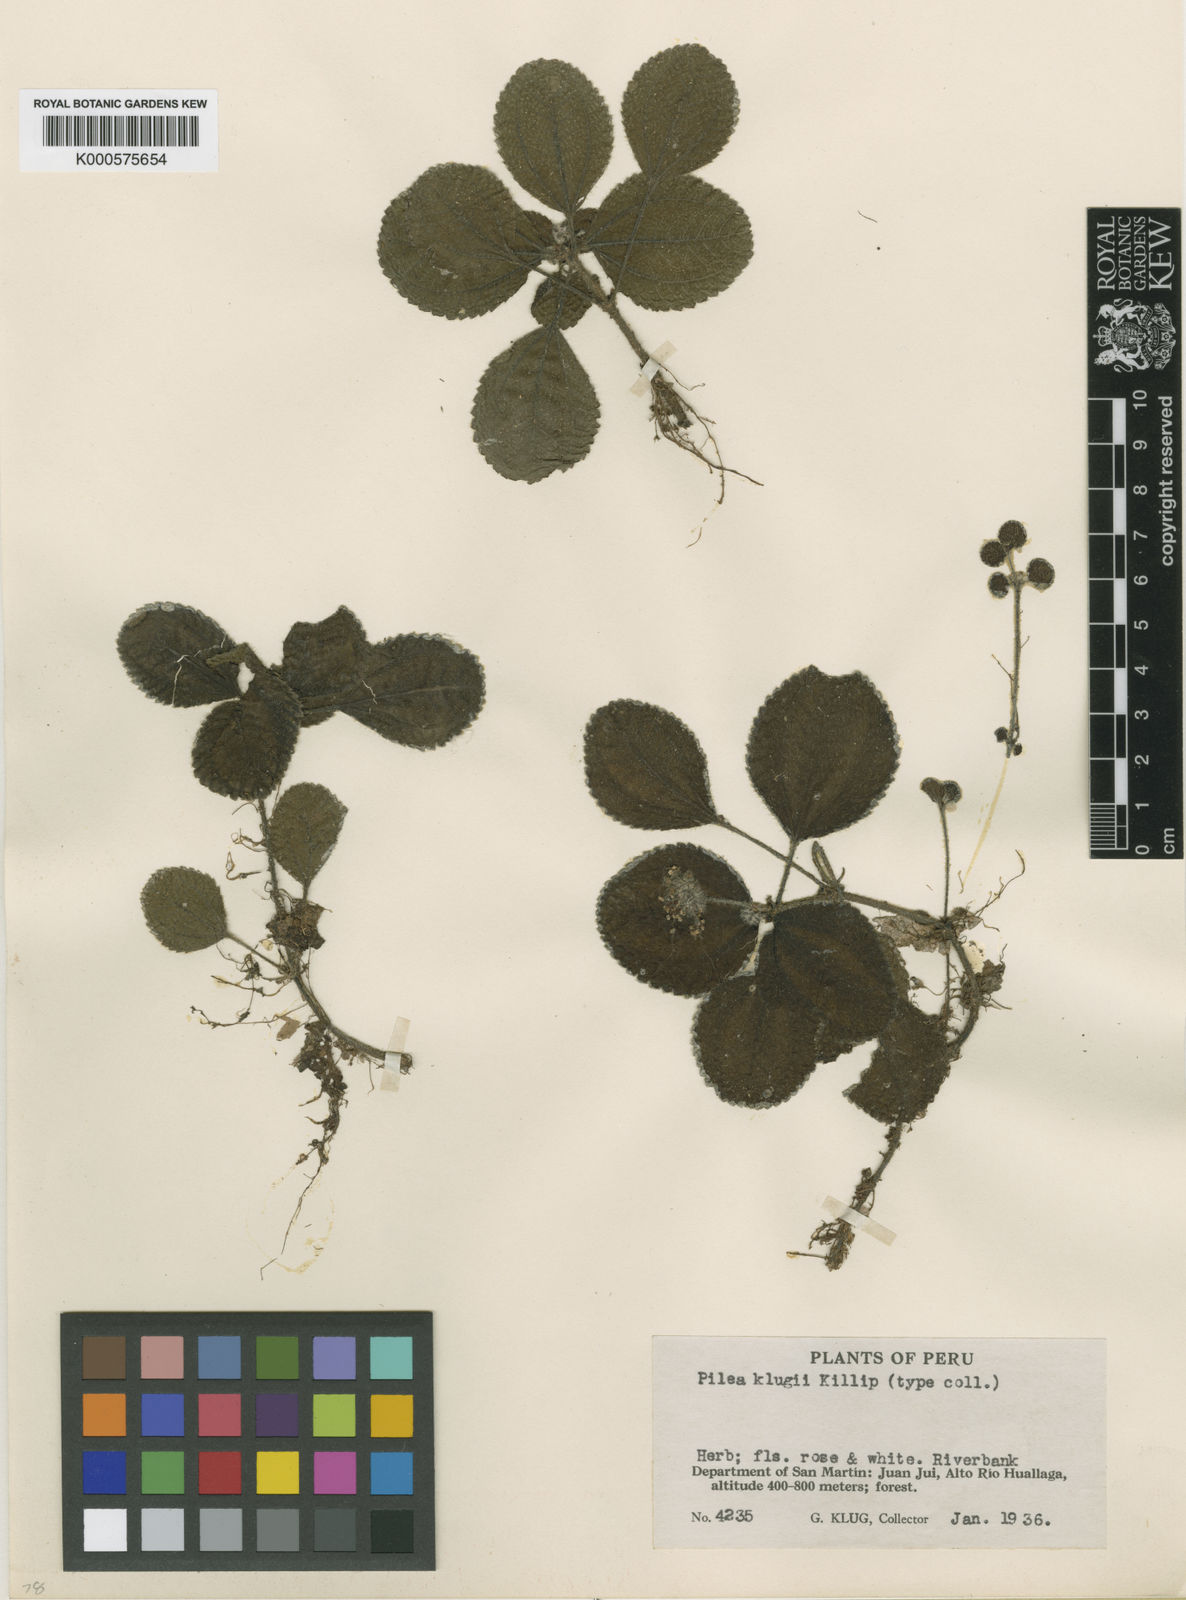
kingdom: Plantae
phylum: Tracheophyta
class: Magnoliopsida
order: Rosales
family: Urticaceae
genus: Pilea
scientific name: Pilea
